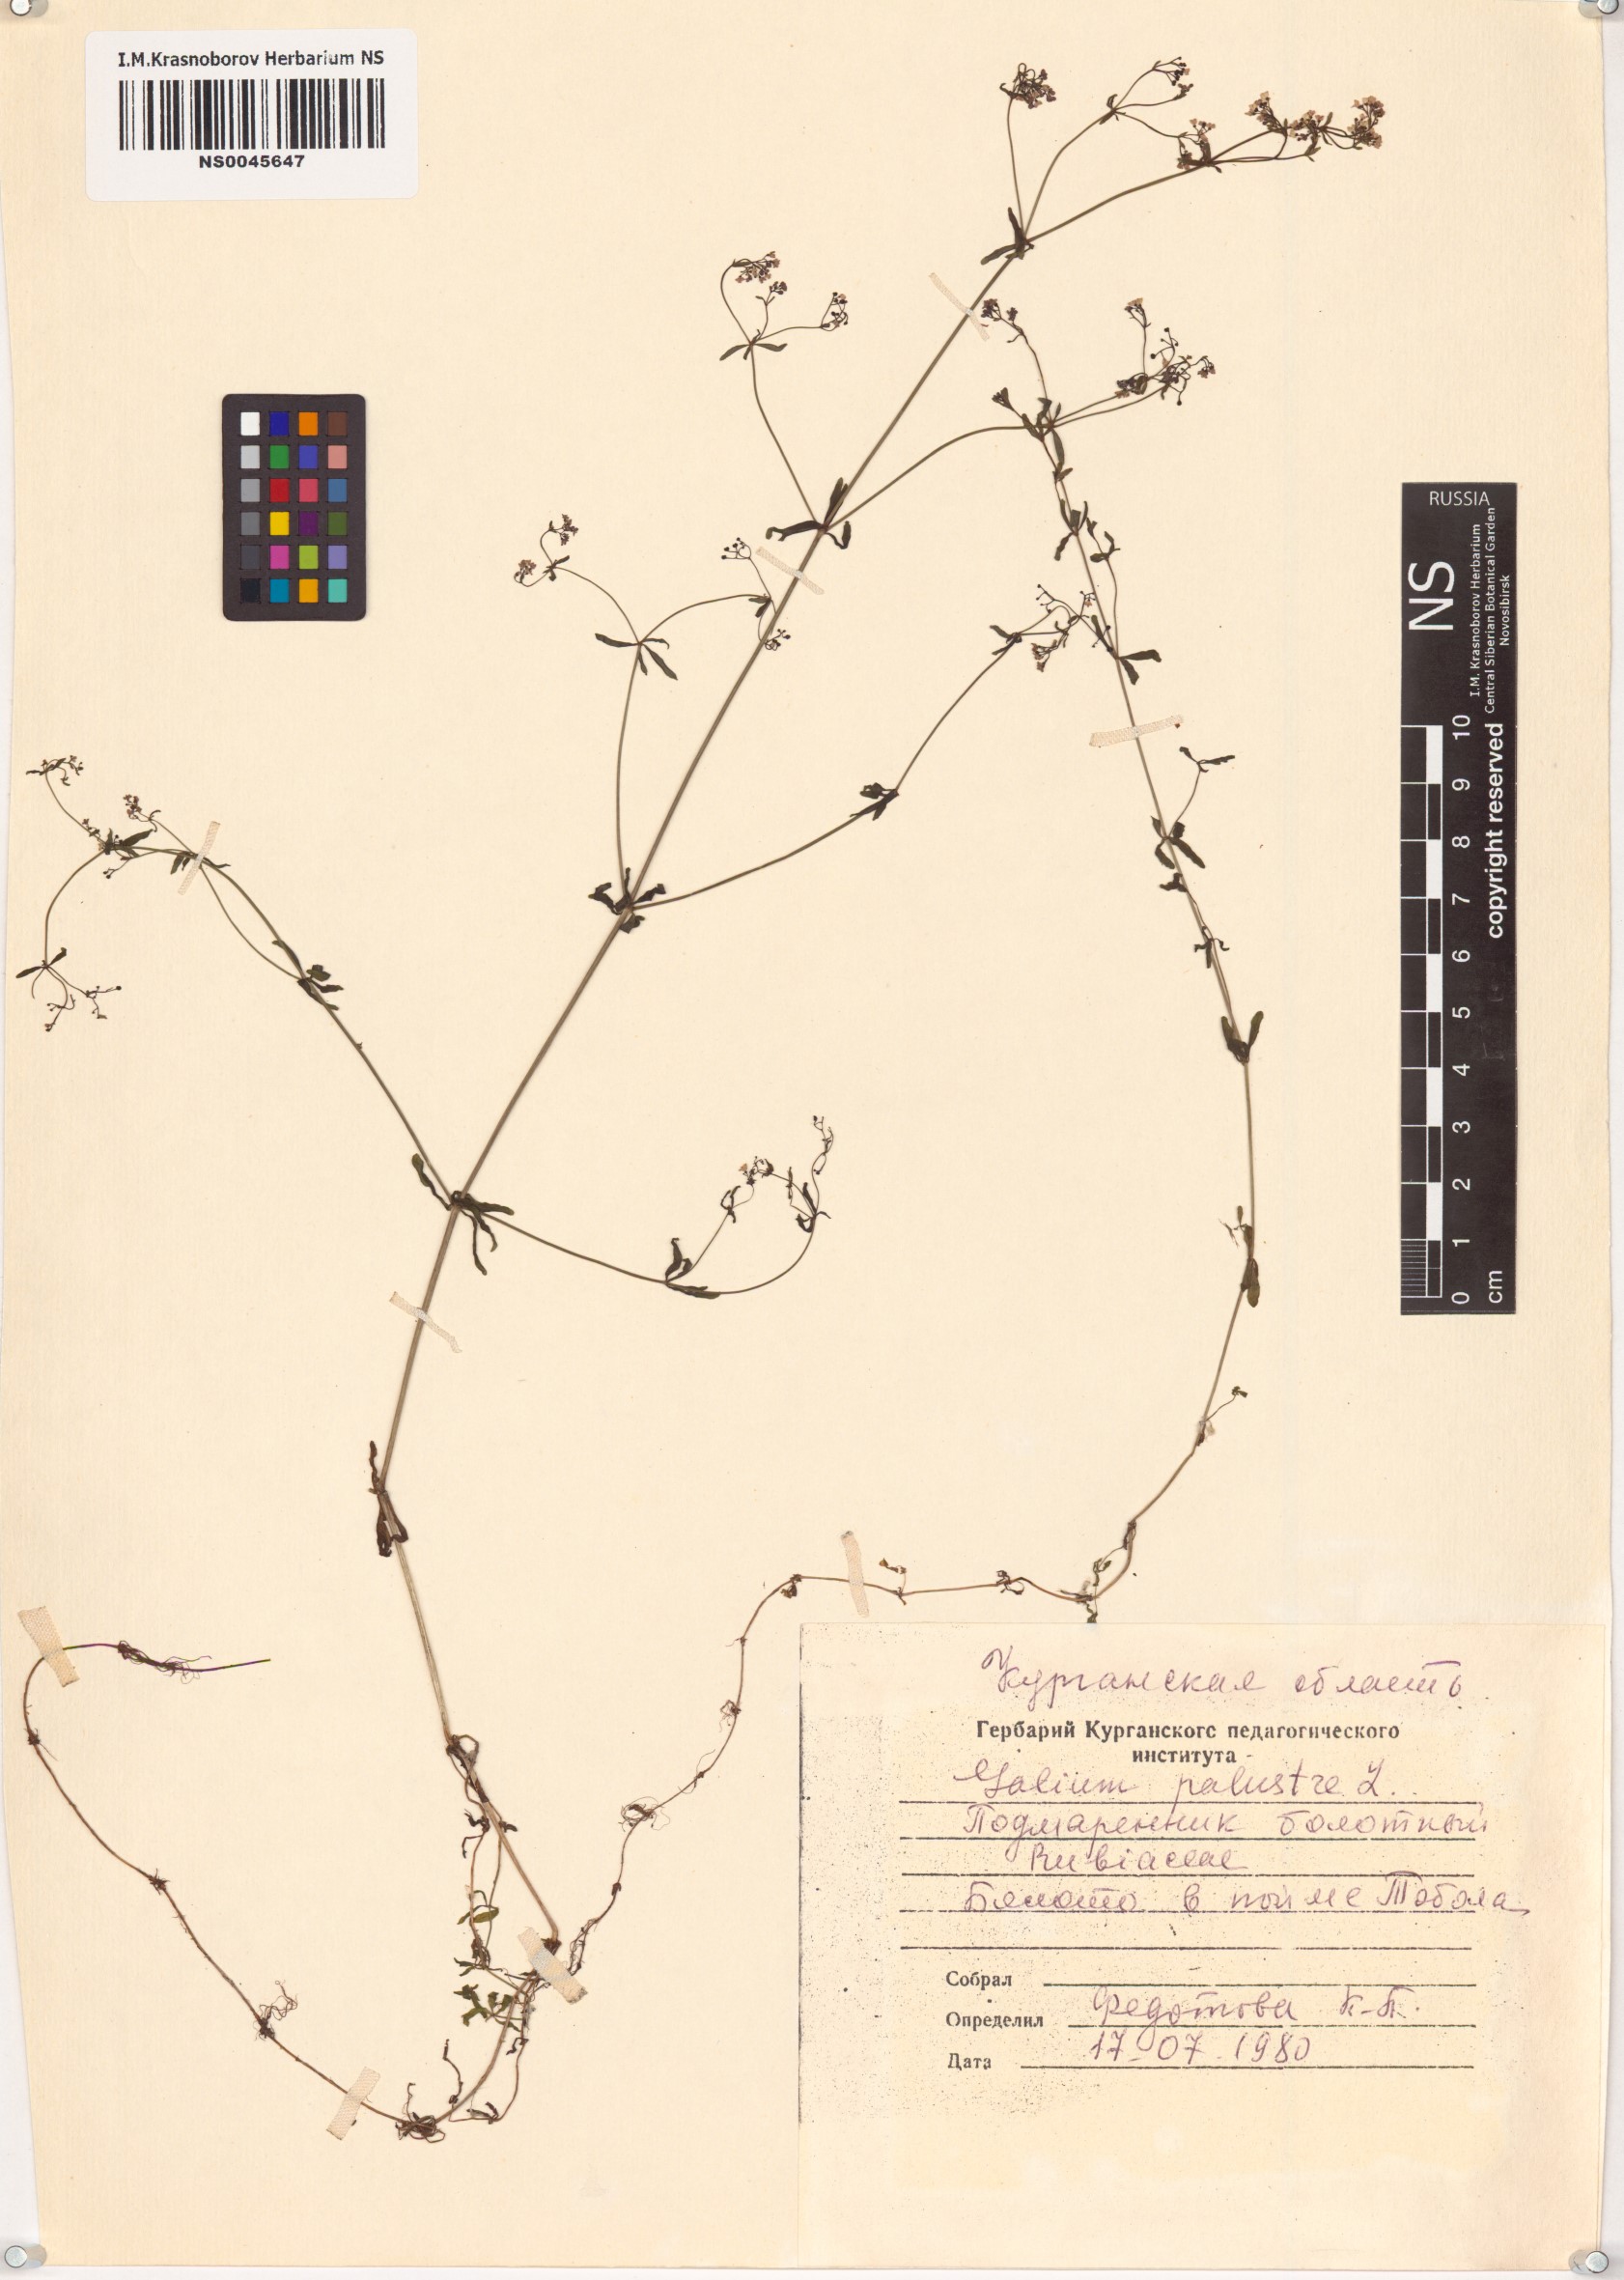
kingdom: Plantae
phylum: Tracheophyta
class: Magnoliopsida
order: Gentianales
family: Rubiaceae
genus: Galium
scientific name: Galium palustre
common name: Common marsh-bedstraw
